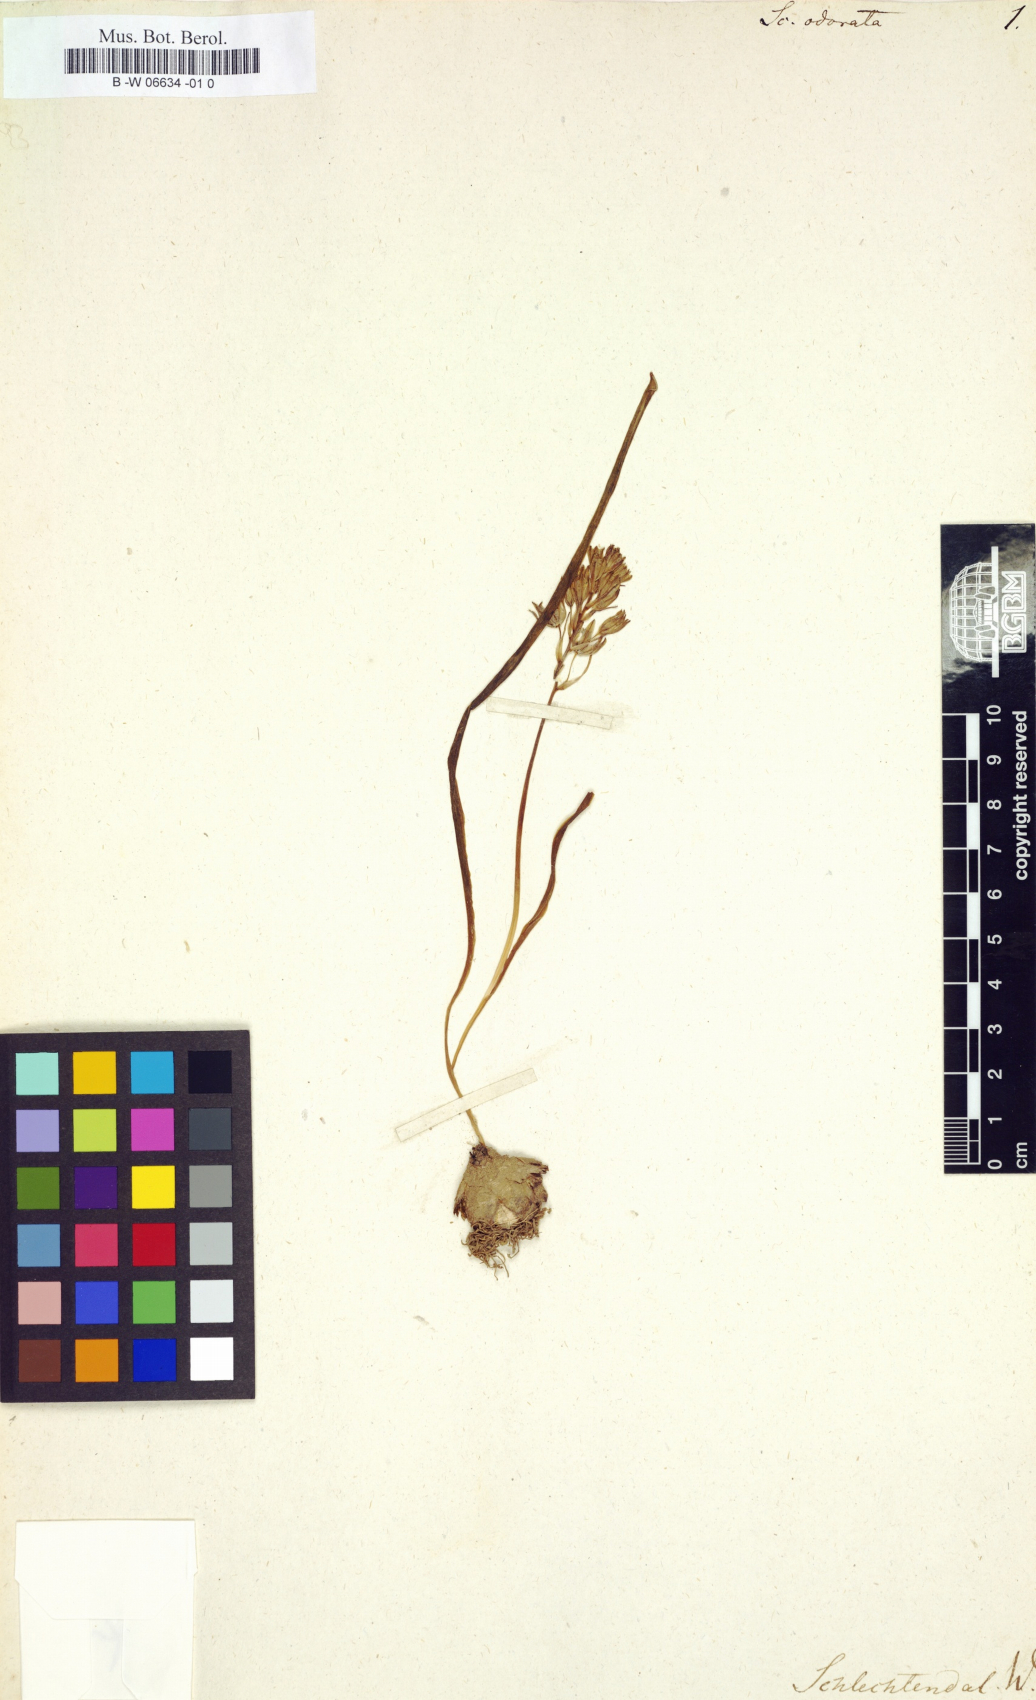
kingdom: Plantae
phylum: Tracheophyta
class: Liliopsida
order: Asparagales
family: Asparagaceae
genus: Scilla
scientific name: Scilla verna
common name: Spring squill
